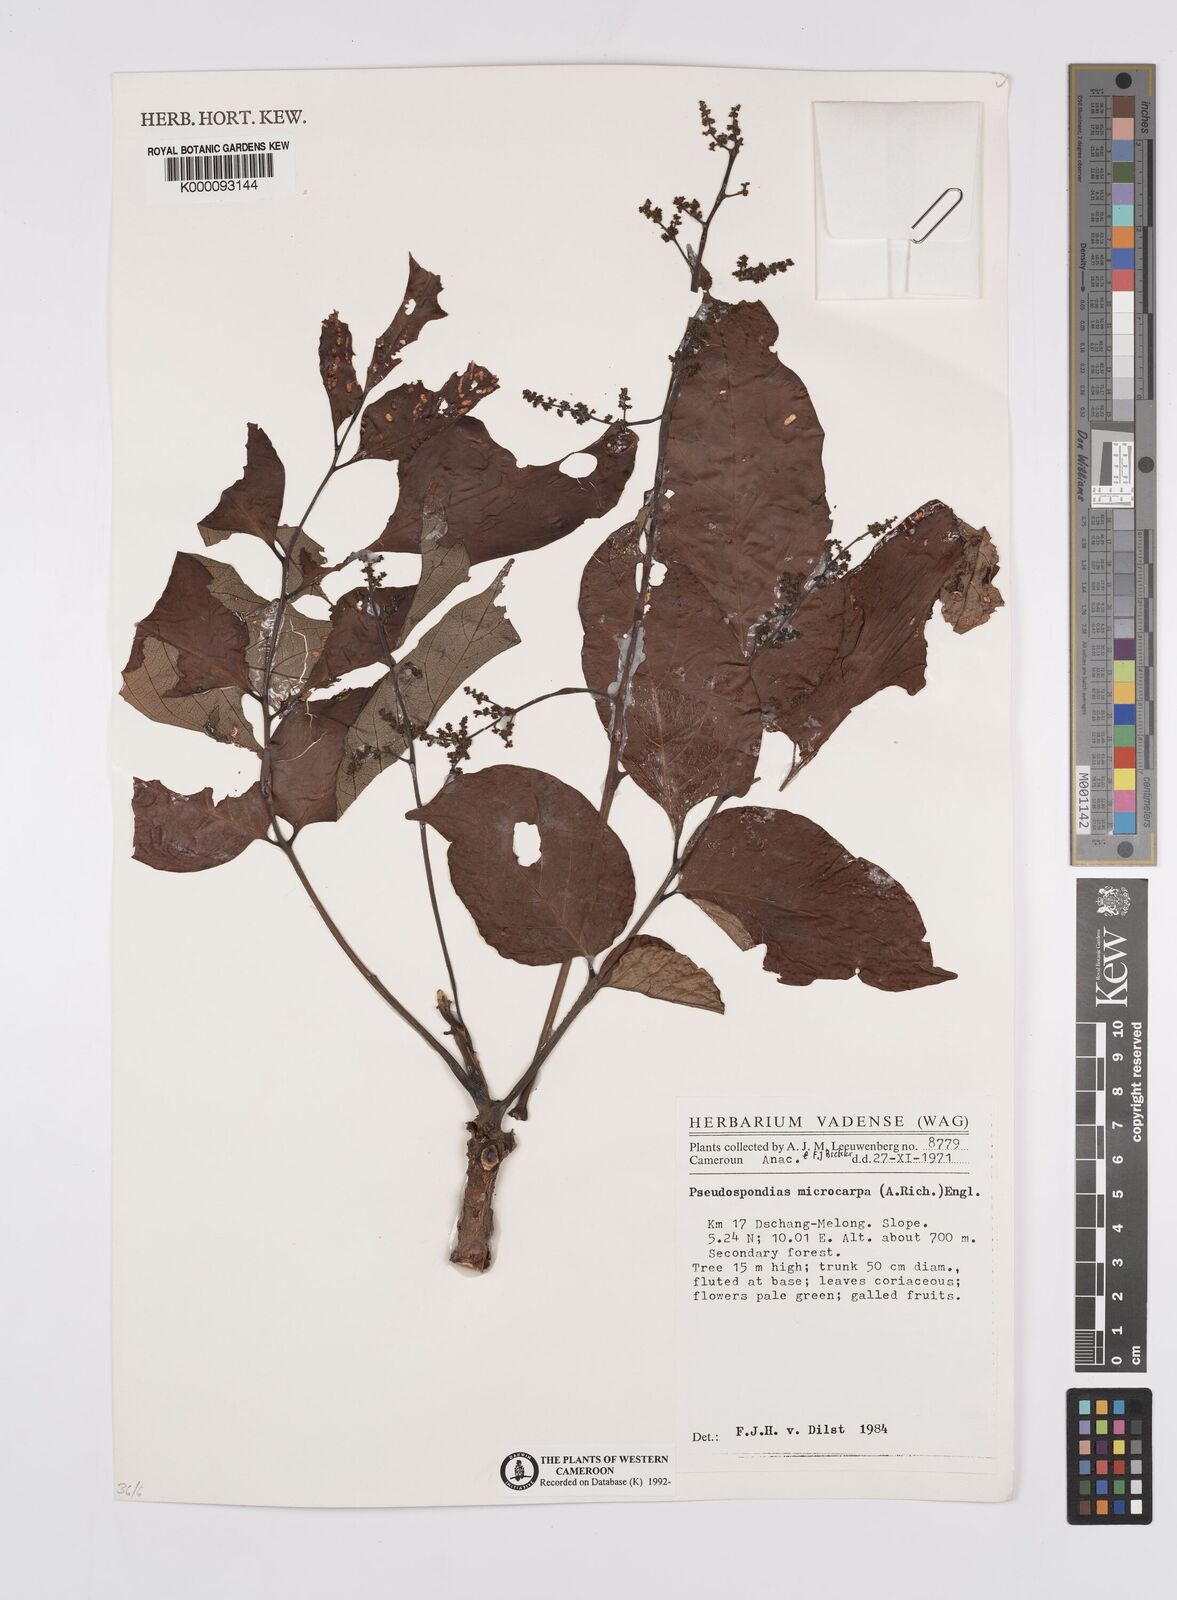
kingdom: Plantae
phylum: Tracheophyta
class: Magnoliopsida
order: Sapindales
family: Anacardiaceae
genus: Pseudospondias
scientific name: Pseudospondias microcarpa
